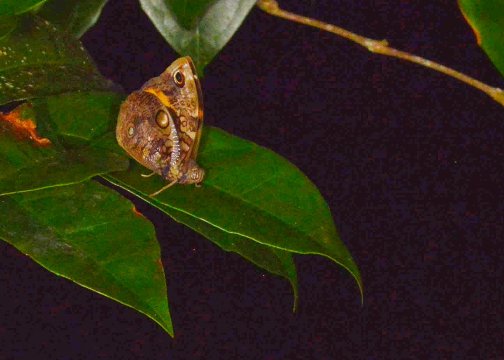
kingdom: Animalia
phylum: Arthropoda
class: Insecta
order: Lepidoptera
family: Nymphalidae
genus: Opsiphanes
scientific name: Opsiphanes cassiae
